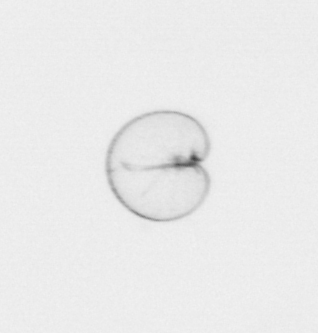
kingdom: Chromista
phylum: Myzozoa
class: Dinophyceae
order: Noctilucales
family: Noctilucaceae
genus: Noctiluca
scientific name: Noctiluca scintillans
